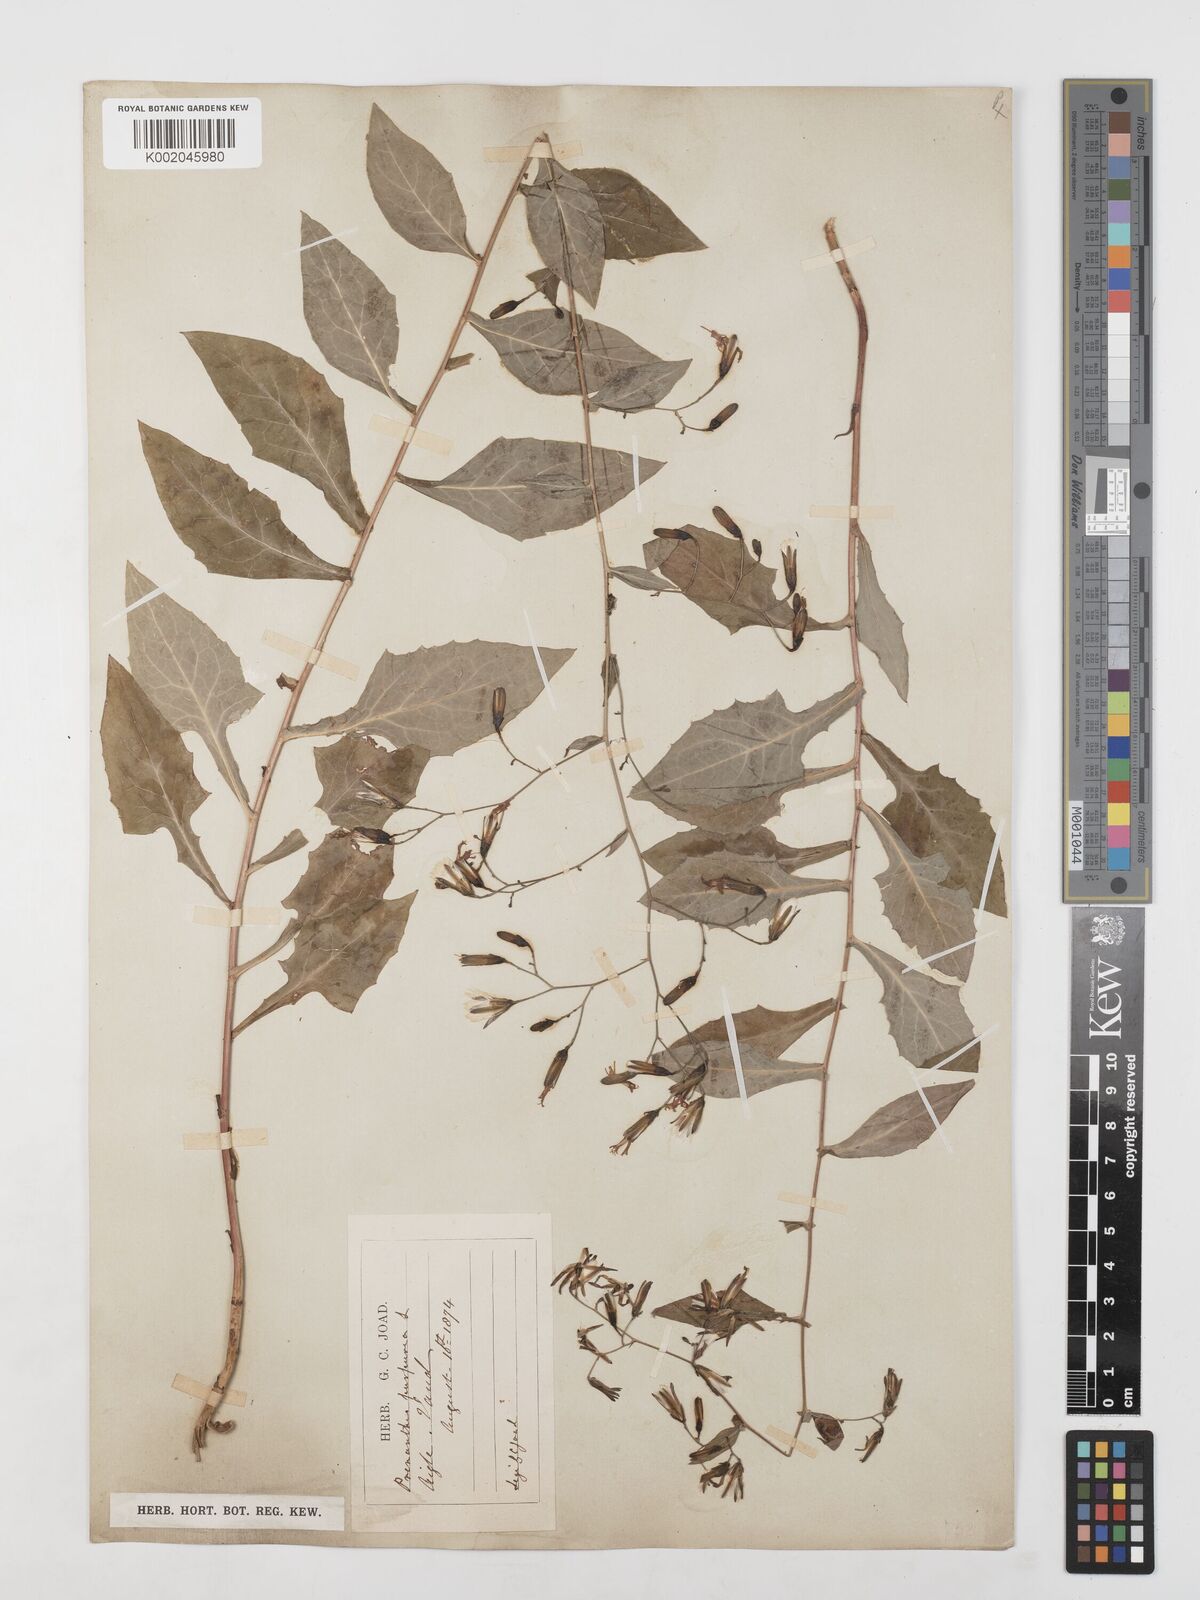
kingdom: Plantae
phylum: Tracheophyta
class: Magnoliopsida
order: Asterales
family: Asteraceae
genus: Prenanthes
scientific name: Prenanthes purpurea
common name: Purple lettuce
